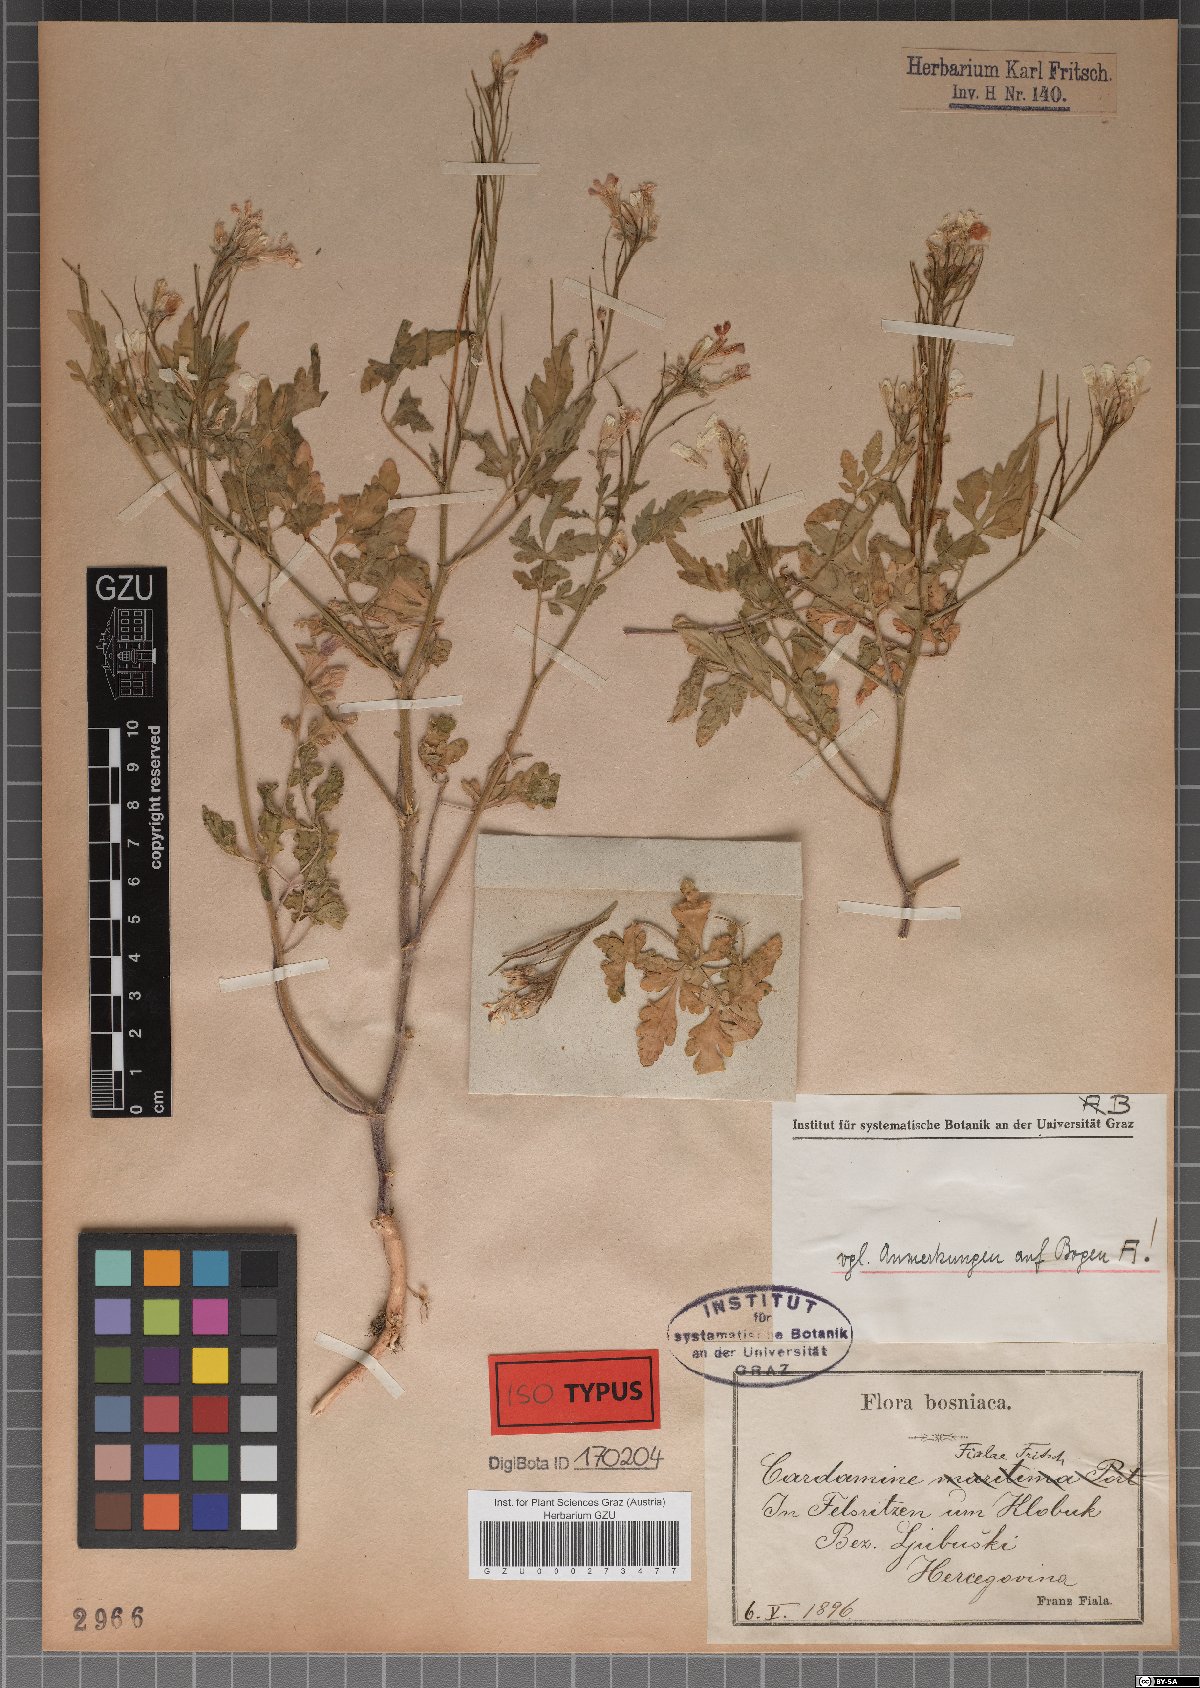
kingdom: Plantae
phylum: Tracheophyta
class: Magnoliopsida
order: Brassicales
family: Brassicaceae
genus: Cardamine
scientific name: Cardamine maritima
